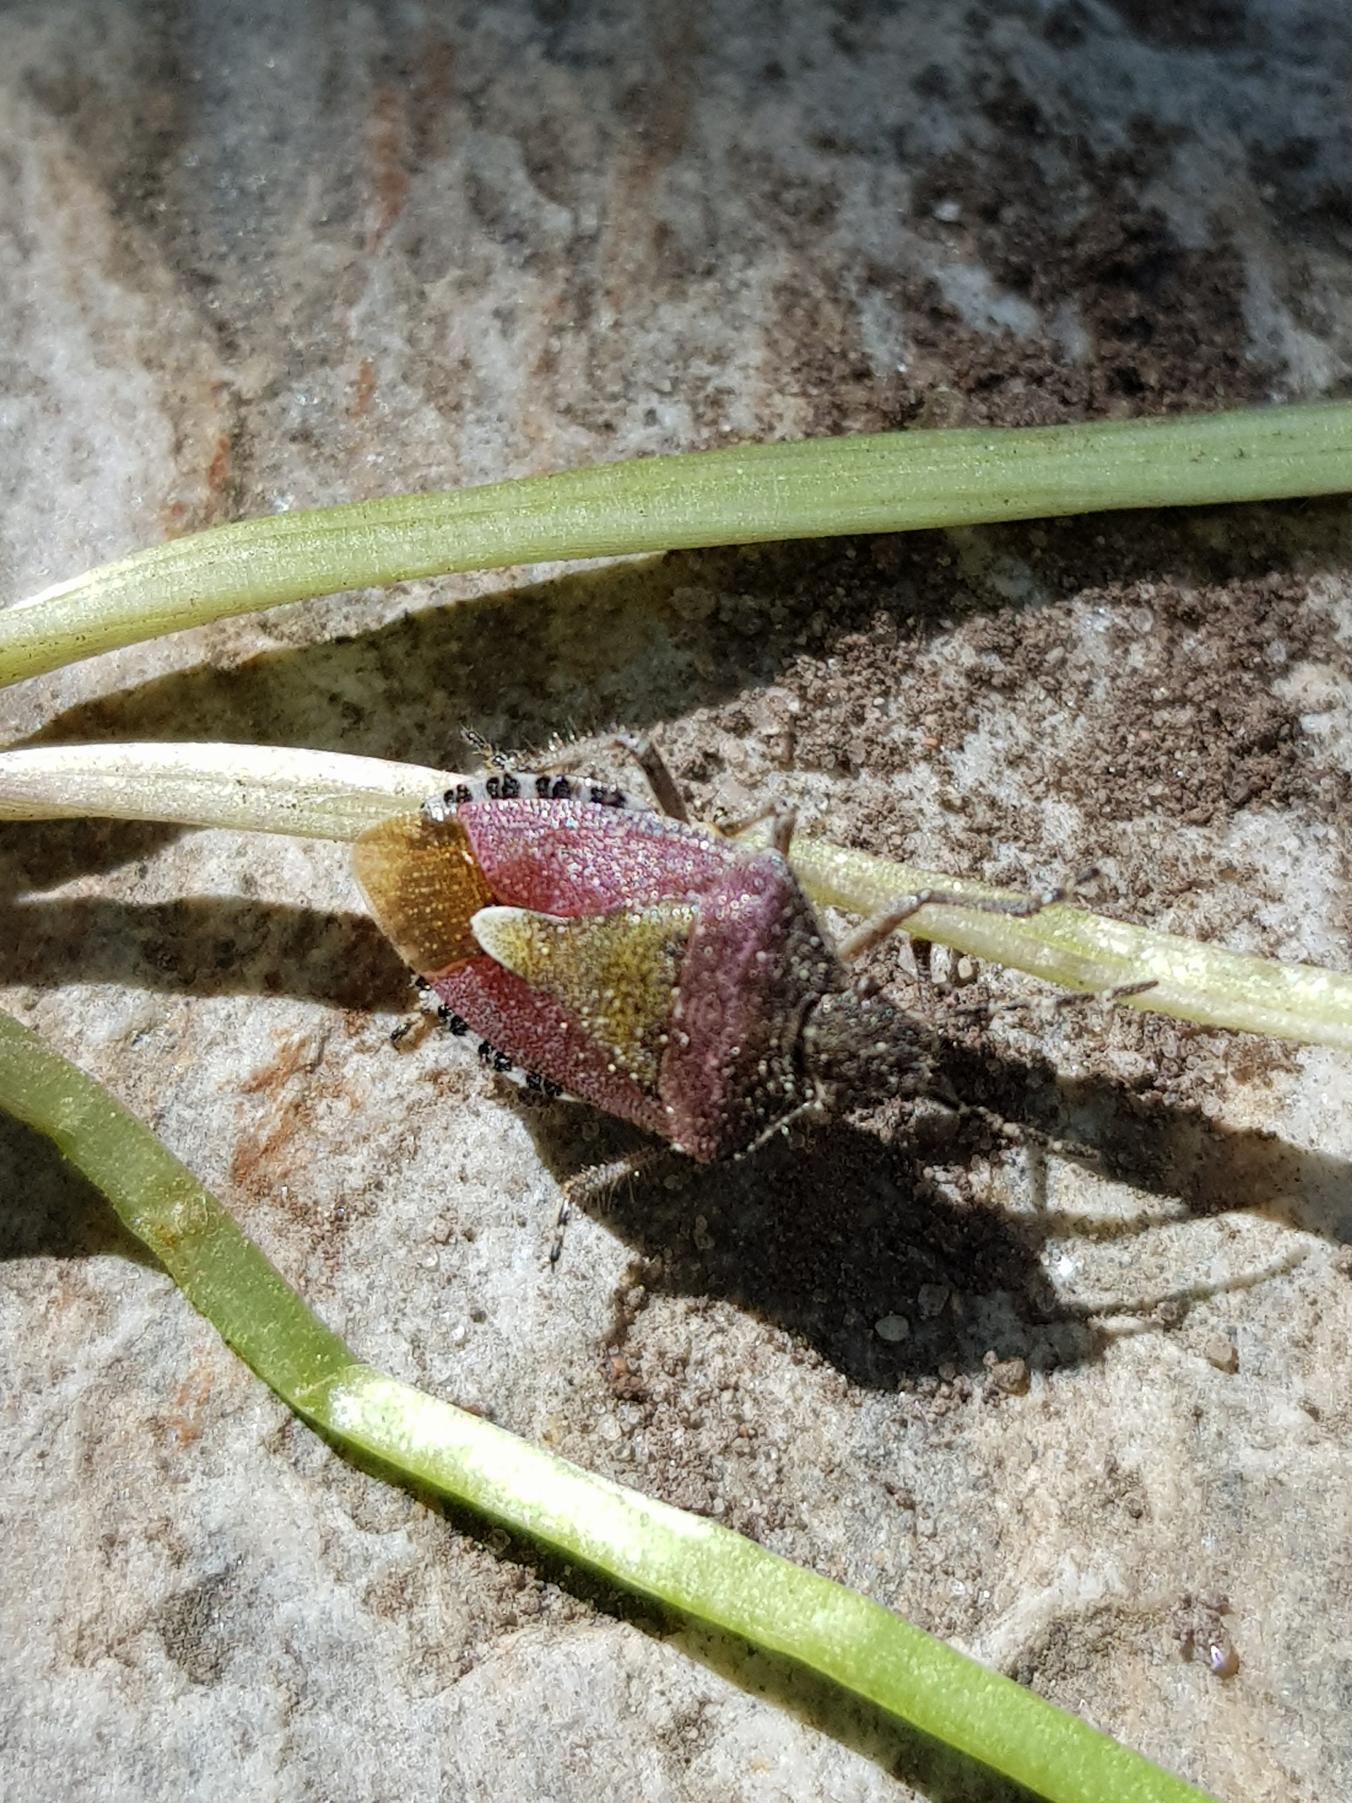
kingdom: Animalia
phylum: Arthropoda
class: Insecta
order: Hemiptera
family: Pentatomidae
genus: Dolycoris
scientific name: Dolycoris baccarum
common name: Almindelig bærtæge
